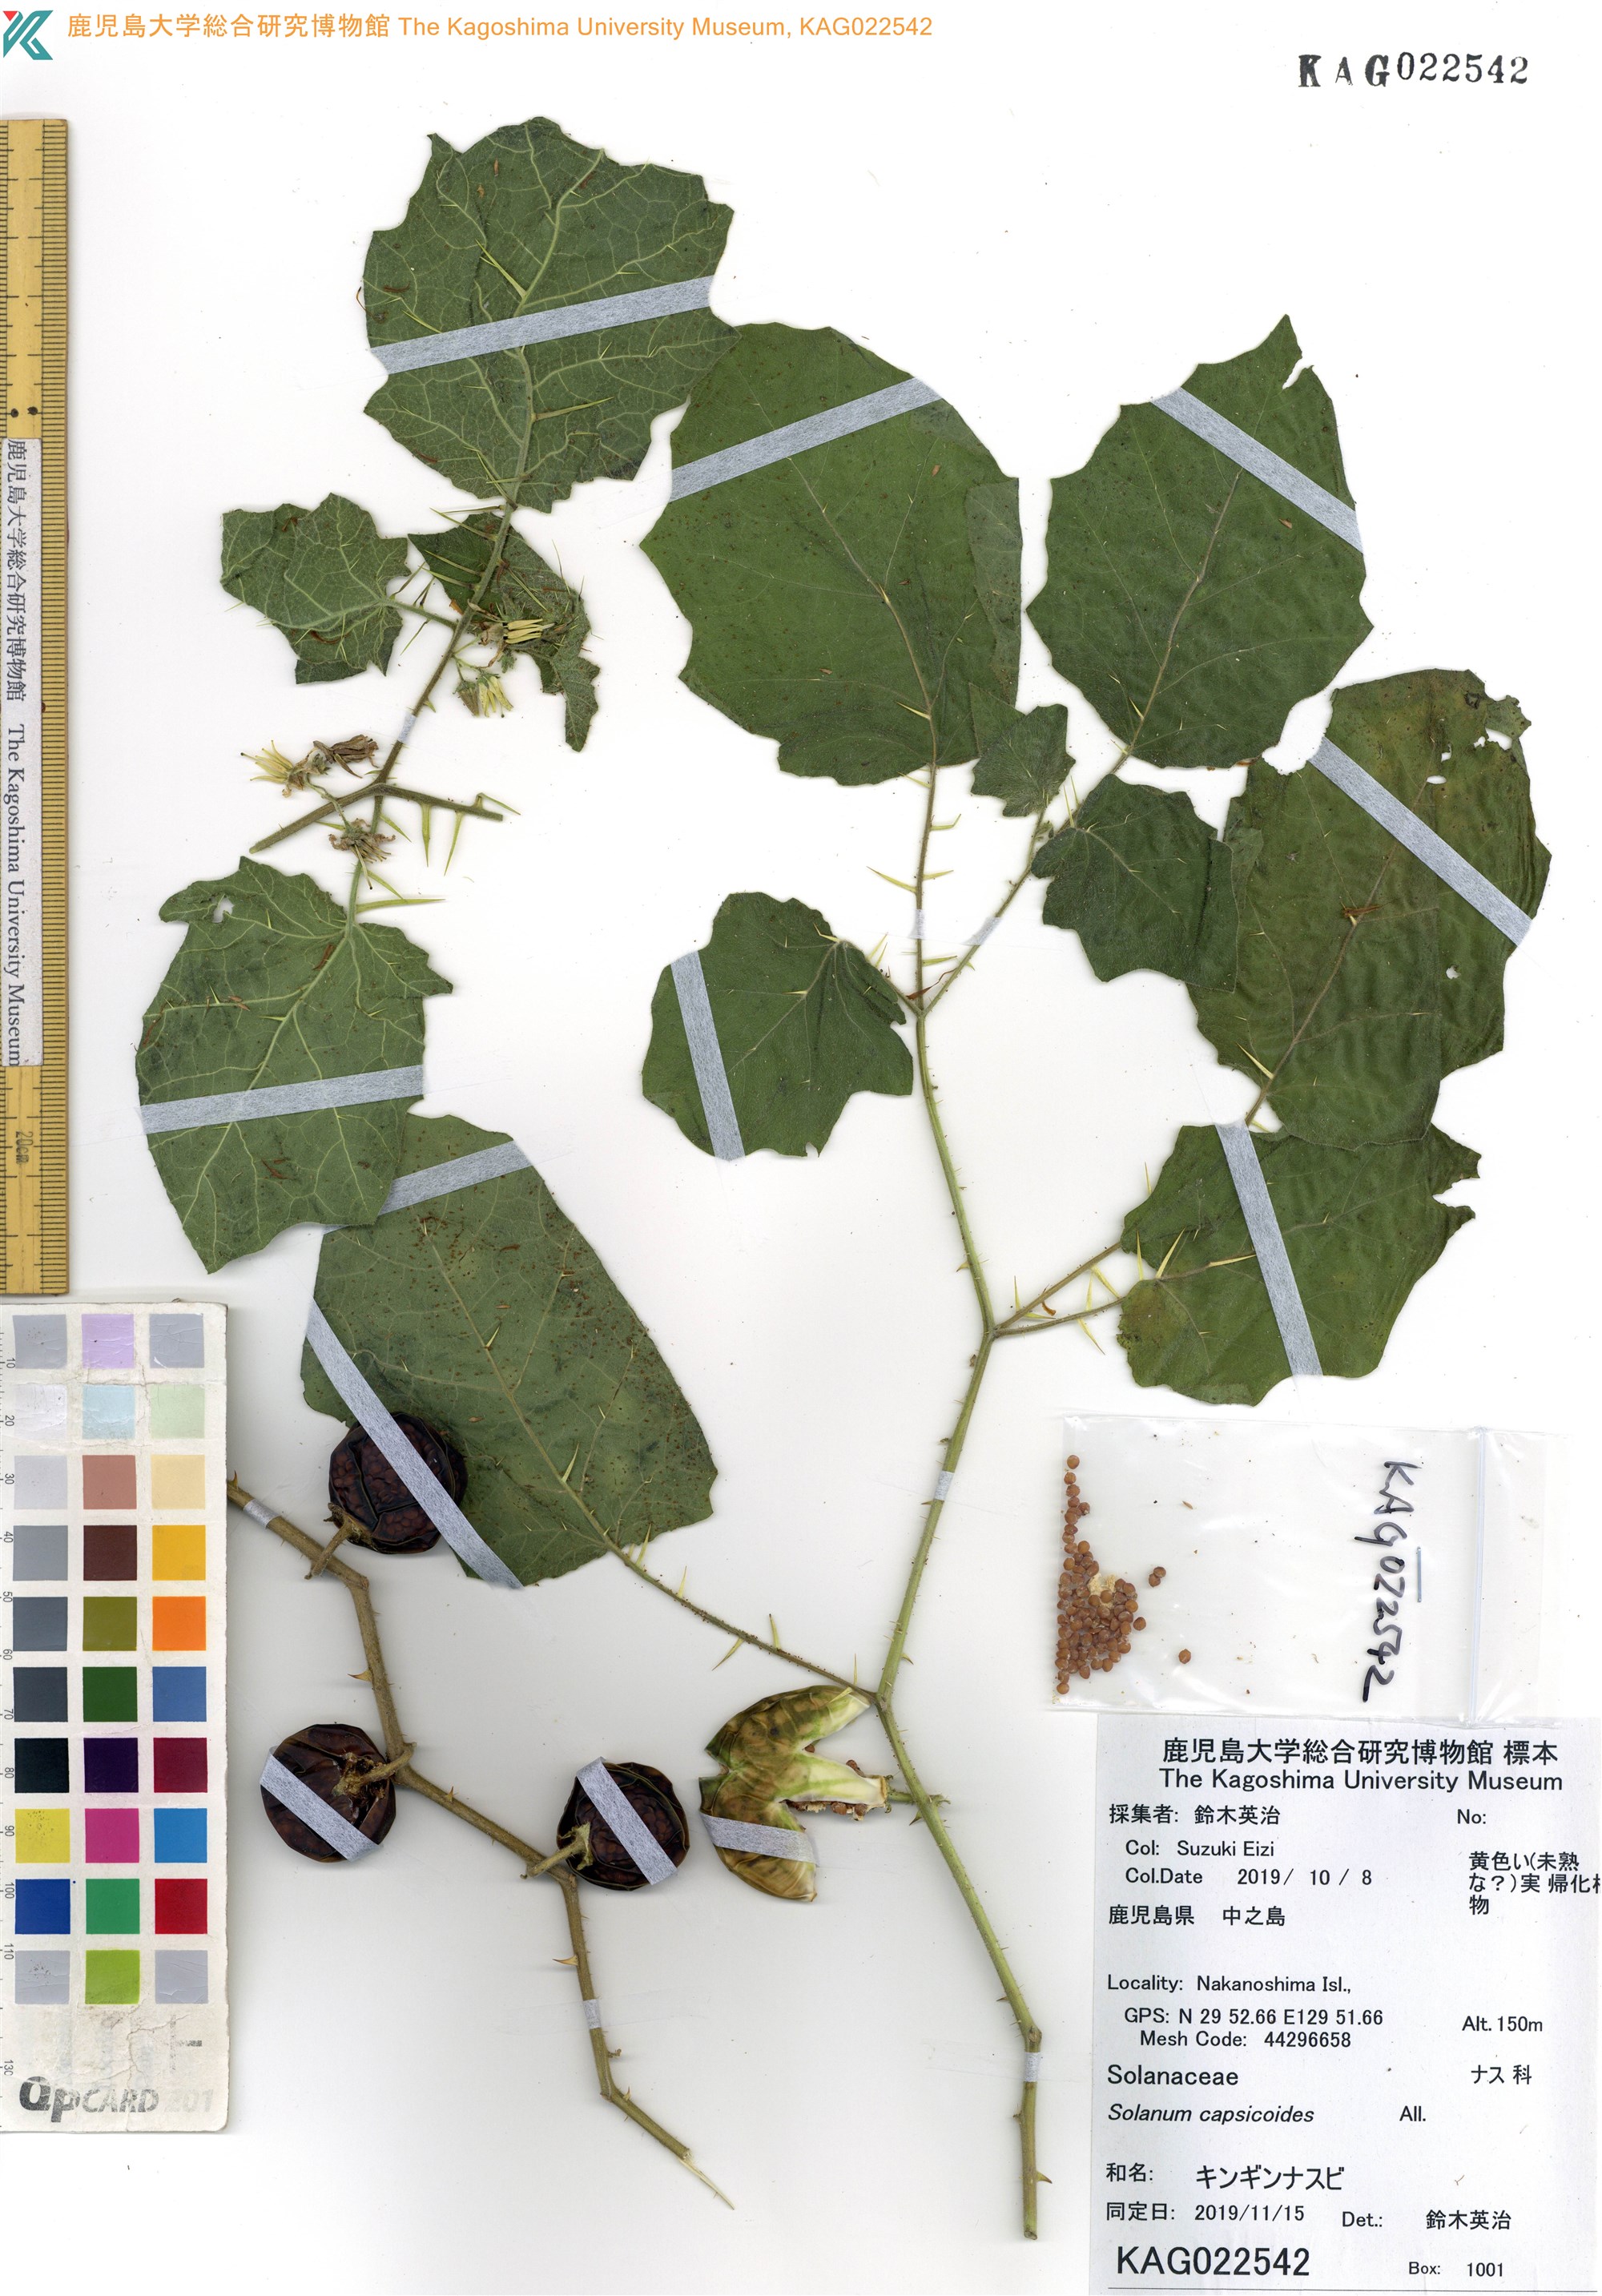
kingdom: Plantae
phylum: Tracheophyta
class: Magnoliopsida
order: Solanales
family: Solanaceae
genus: Solanum
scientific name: Solanum capsicoides
